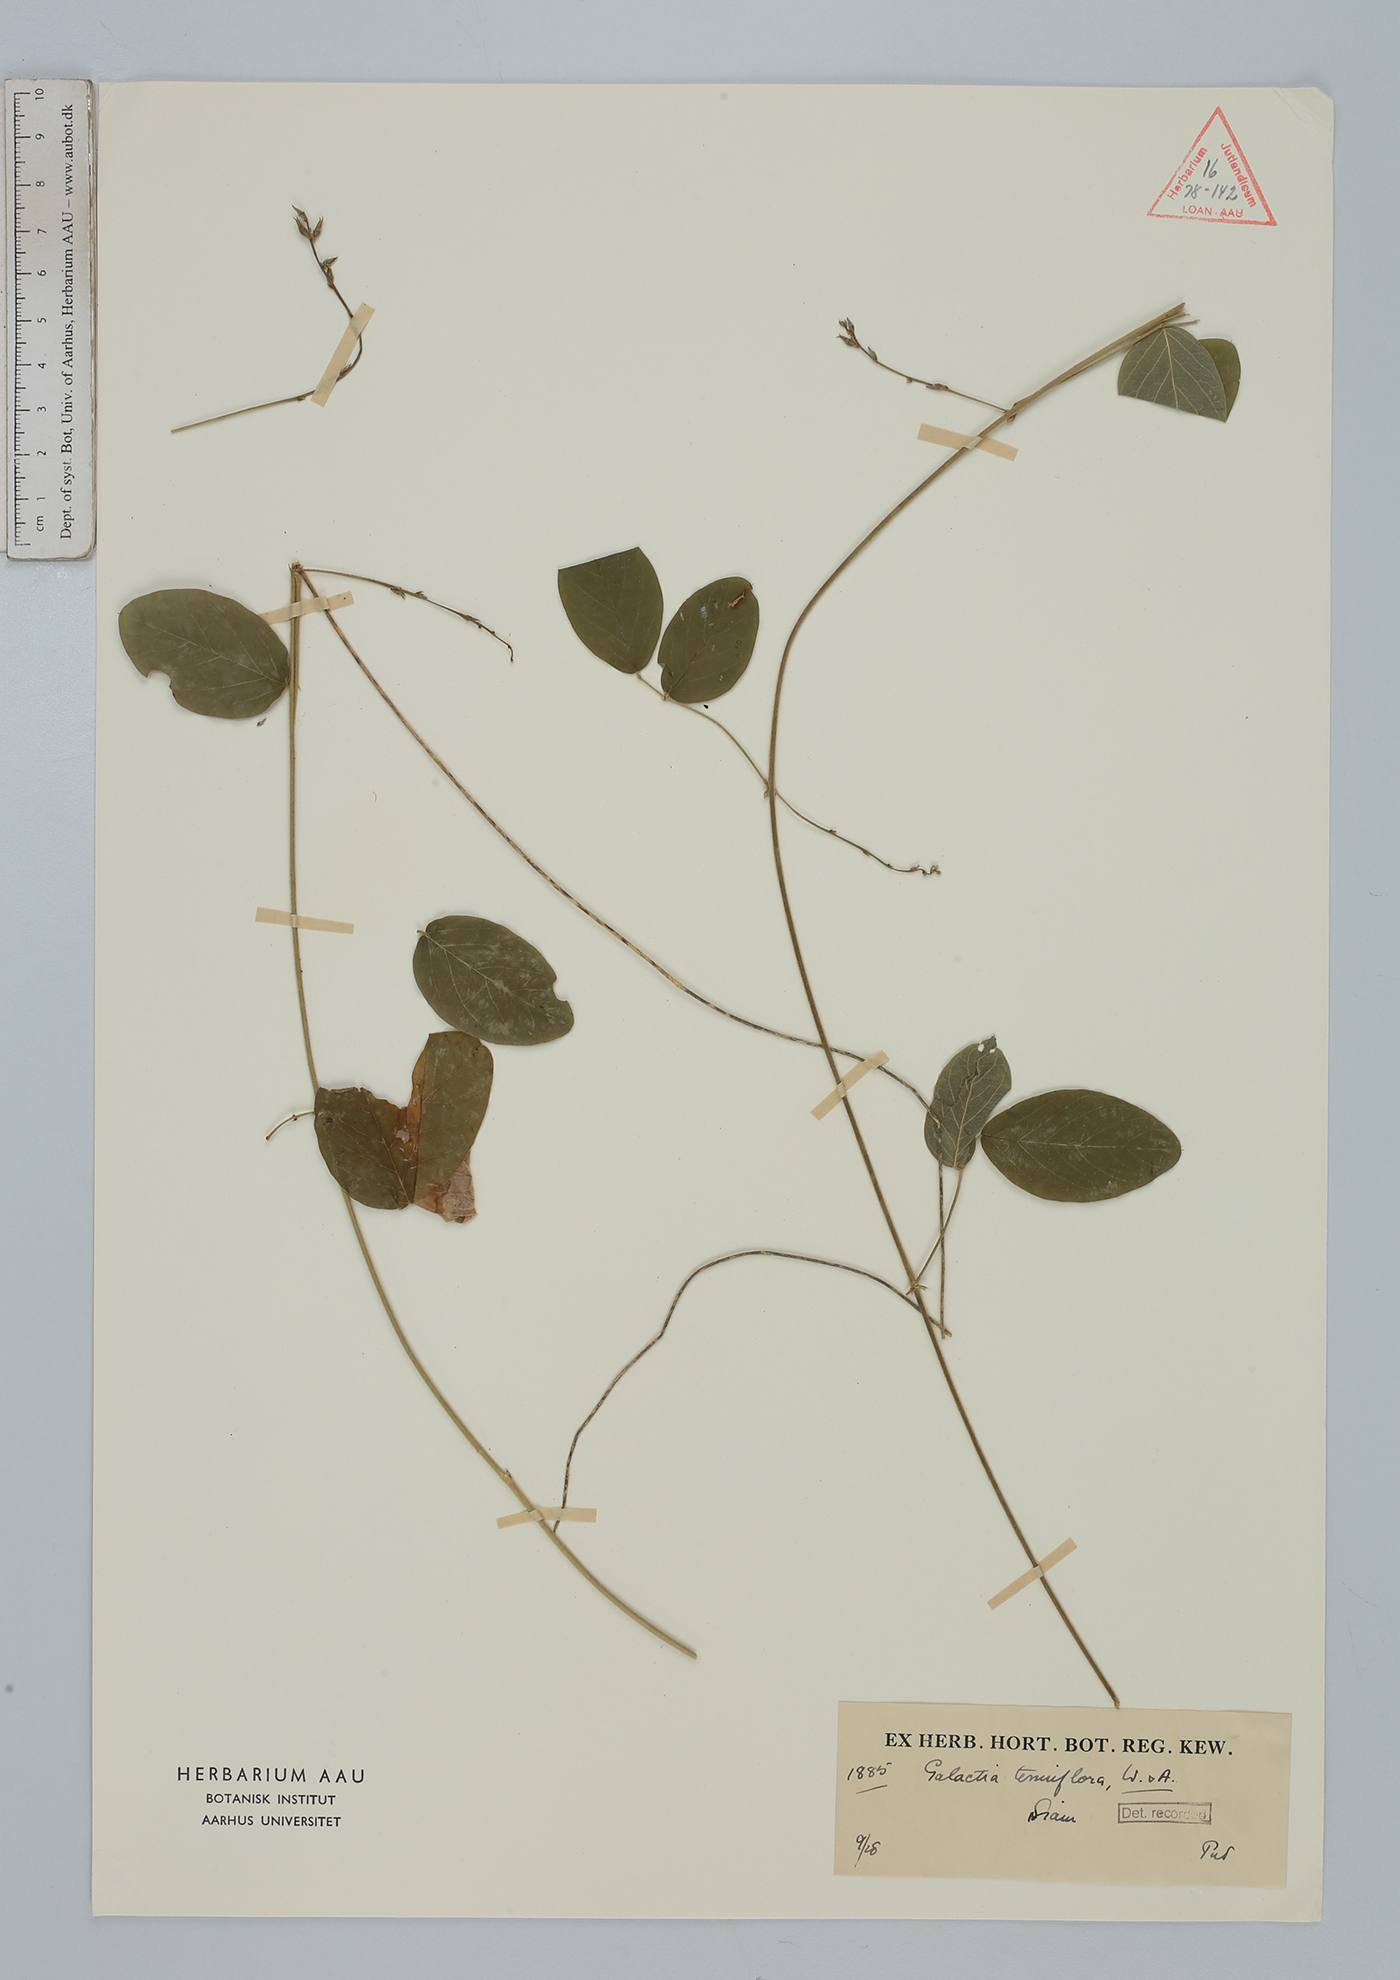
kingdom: Plantae
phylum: Tracheophyta
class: Magnoliopsida
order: Fabales
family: Fabaceae
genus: Galactia
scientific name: Galactia striata
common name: Florida hammock milkpea
